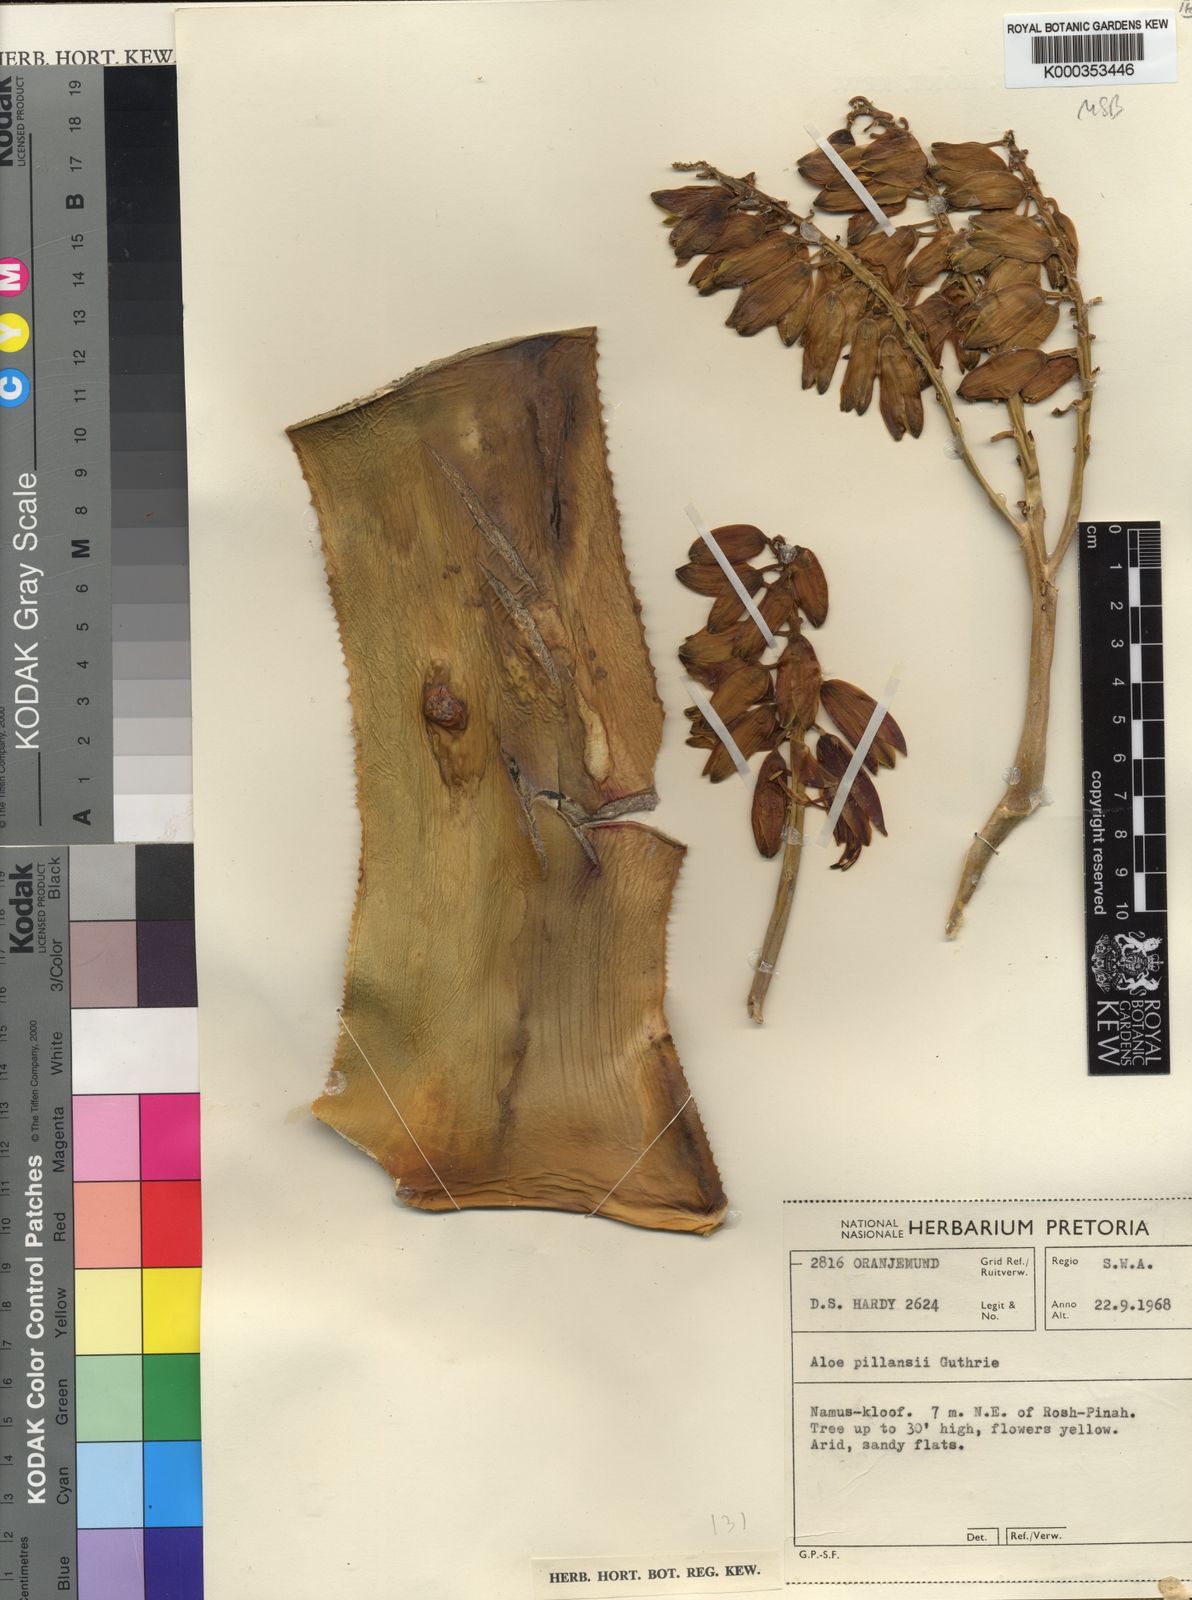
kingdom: Plantae
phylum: Tracheophyta
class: Liliopsida
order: Asparagales
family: Asphodelaceae
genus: Aloidendron
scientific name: Aloidendron pillansii
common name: Bastard quiver tree
